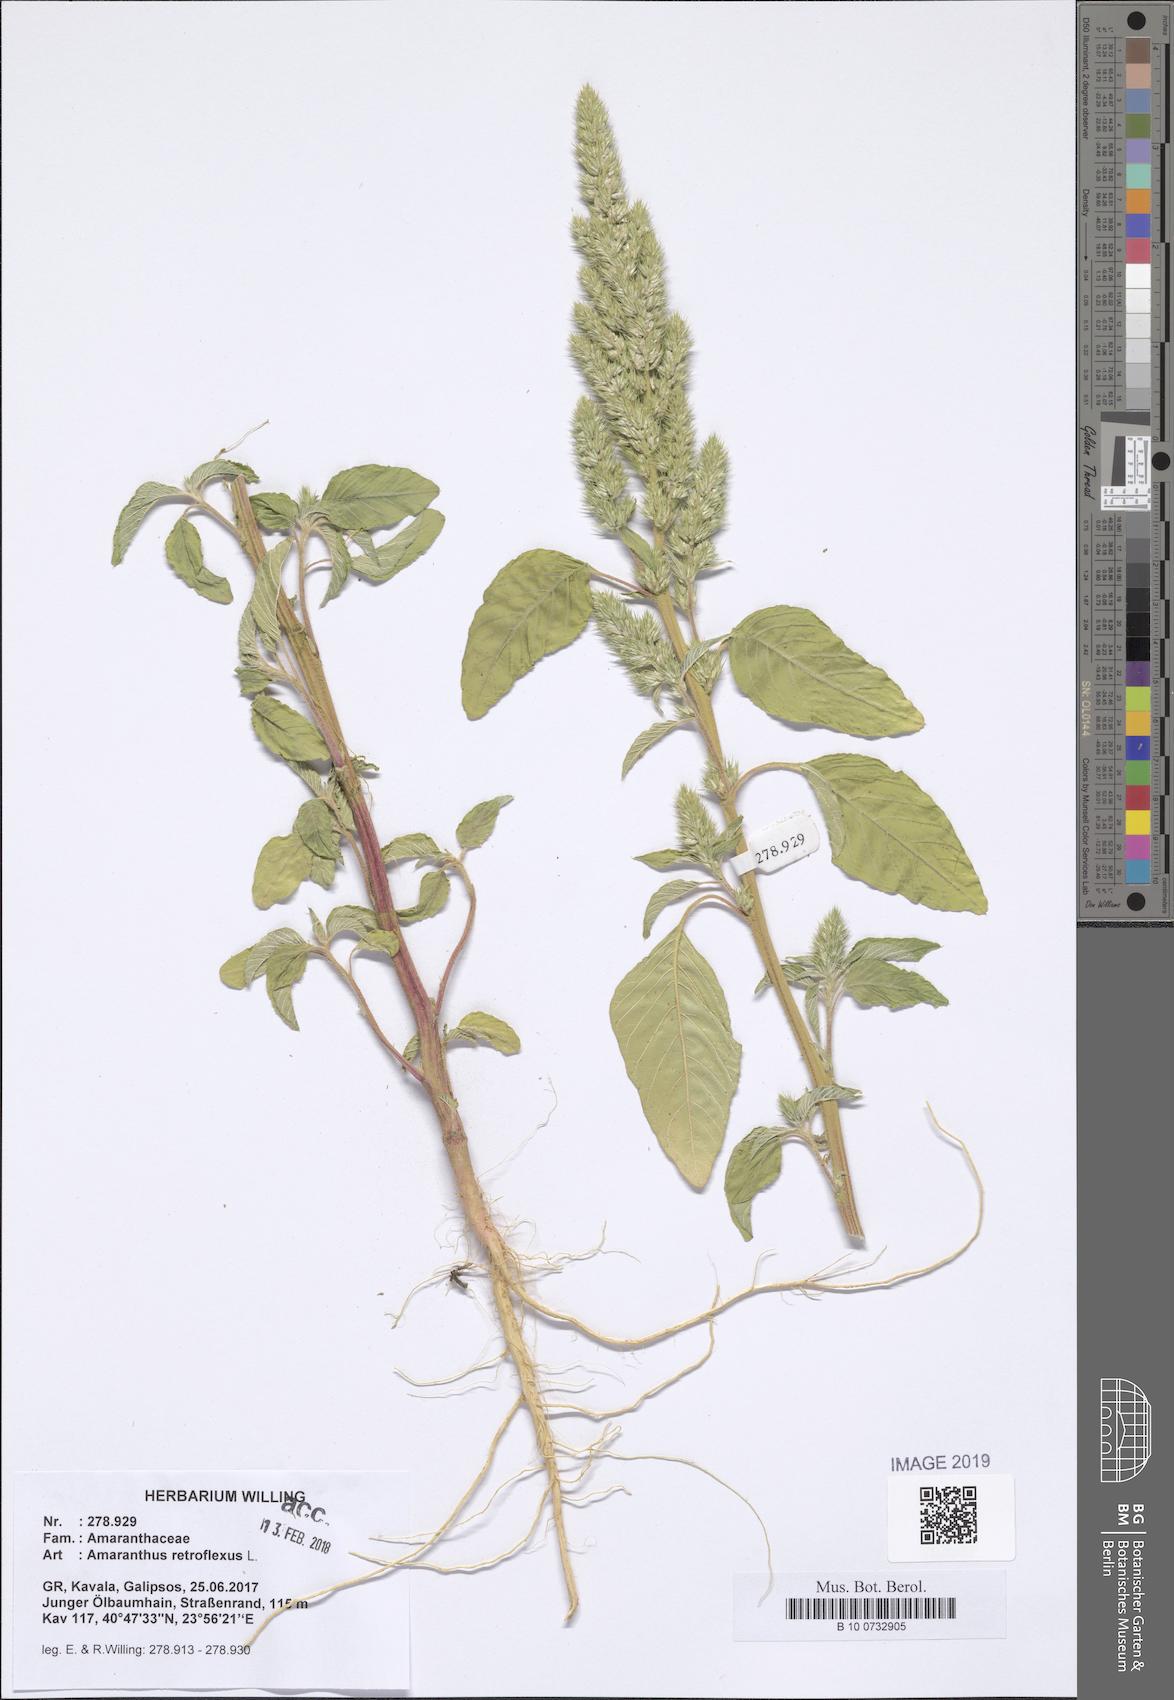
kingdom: Plantae
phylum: Tracheophyta
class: Magnoliopsida
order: Caryophyllales
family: Amaranthaceae
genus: Amaranthus
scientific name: Amaranthus retroflexus
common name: Redroot amaranth
